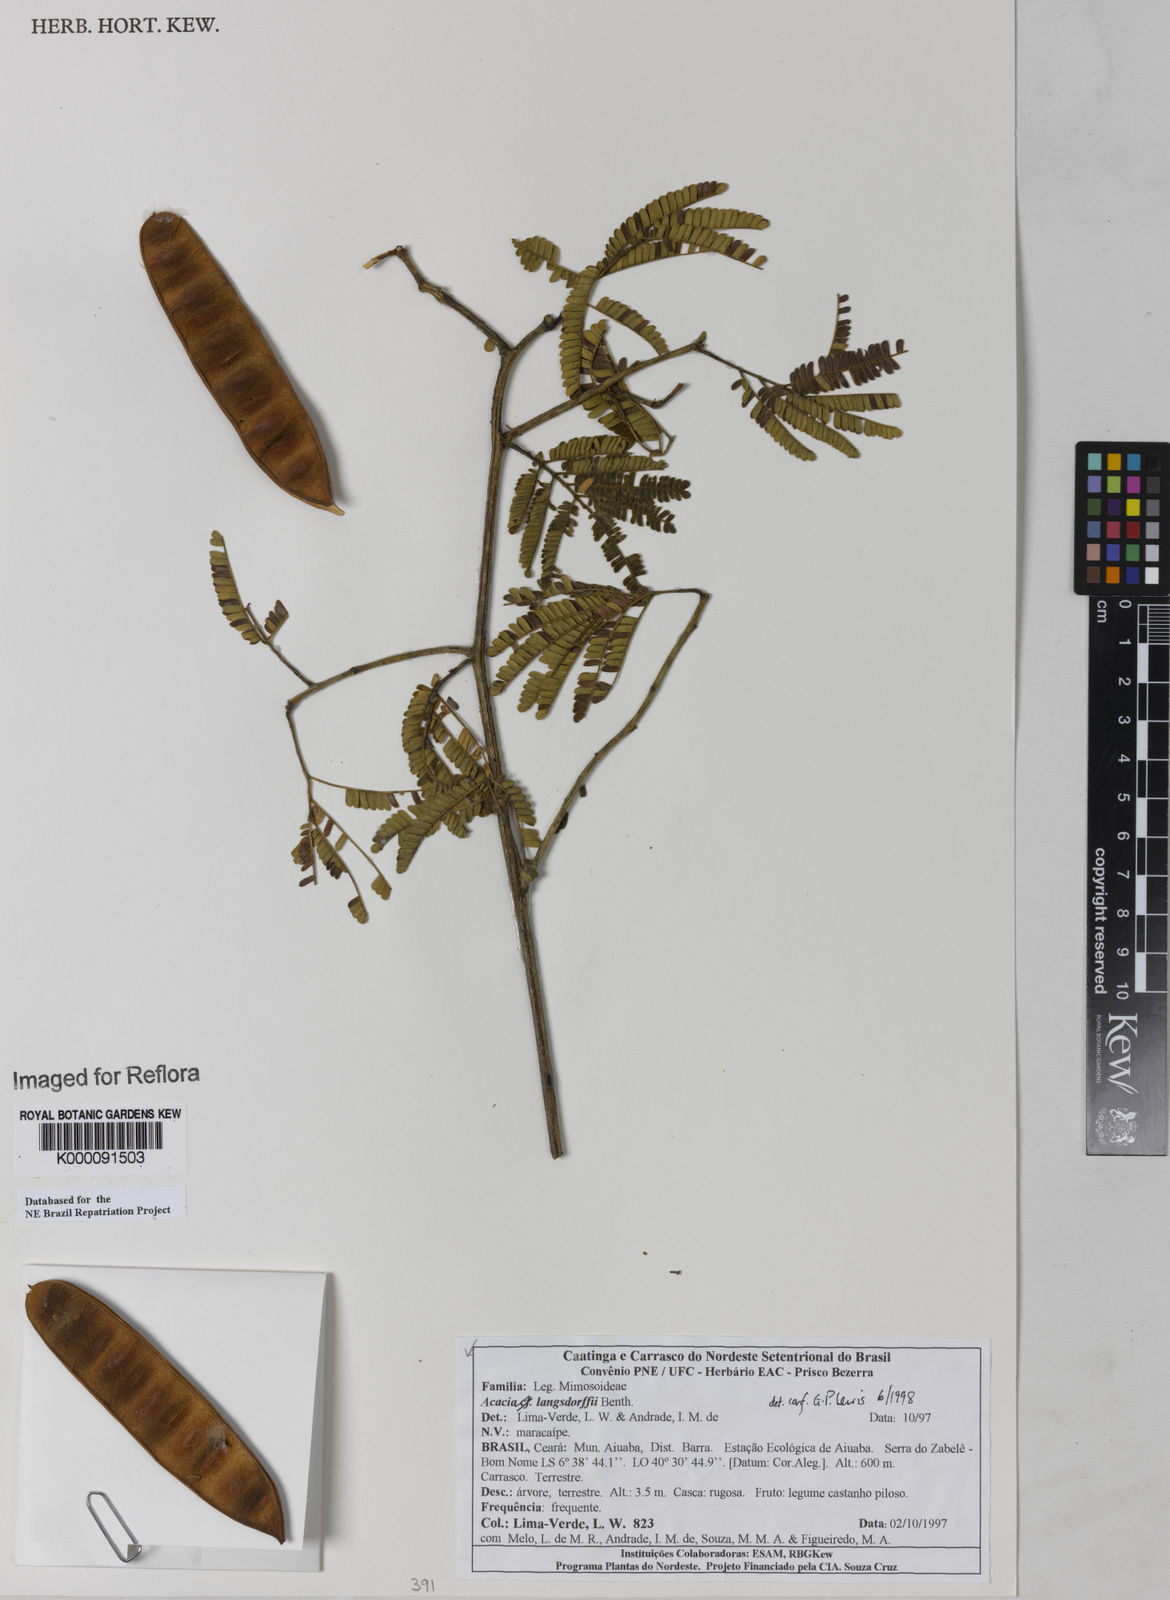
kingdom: Plantae
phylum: Tracheophyta
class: Magnoliopsida
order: Fabales
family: Fabaceae
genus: Senegalia
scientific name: Senegalia langsdorffii
